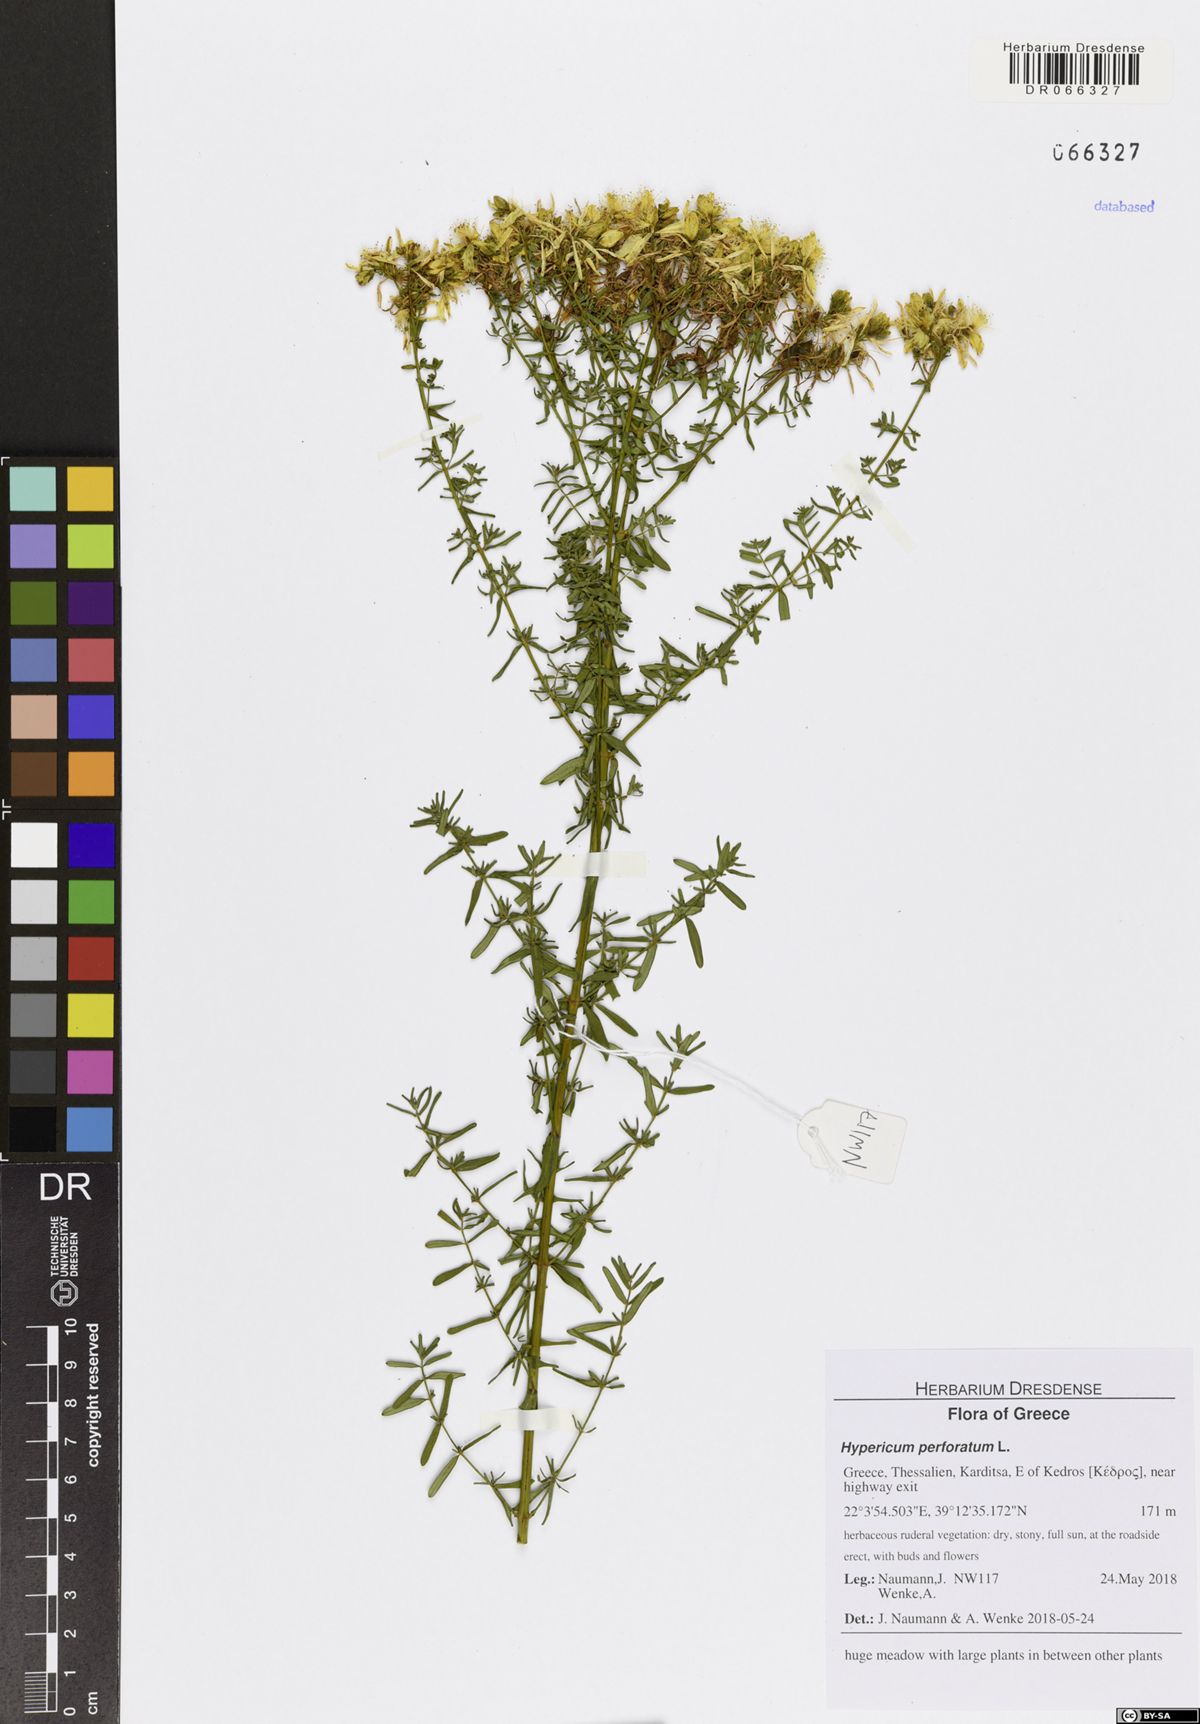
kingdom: Plantae
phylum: Tracheophyta
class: Magnoliopsida
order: Malpighiales
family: Hypericaceae
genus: Hypericum
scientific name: Hypericum perforatum
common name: Common st. johnswort
